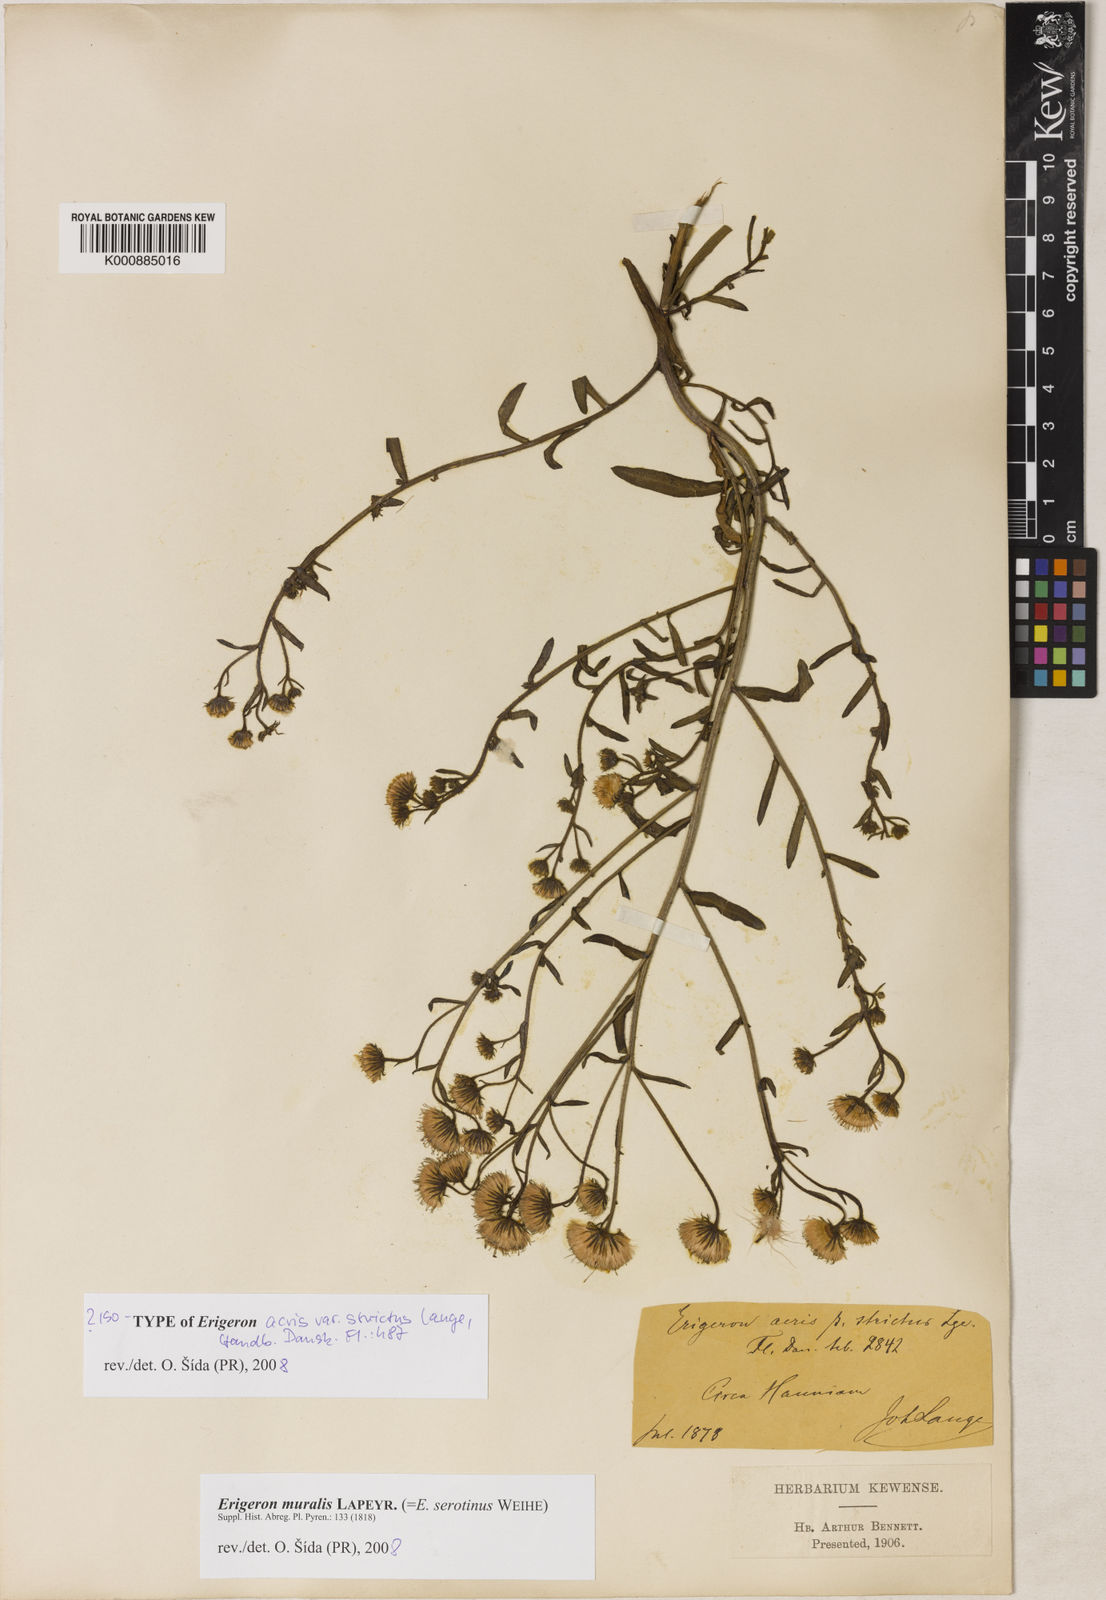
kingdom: Plantae
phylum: Tracheophyta
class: Magnoliopsida
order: Asterales
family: Asteraceae
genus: Erigeron
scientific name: Erigeron muralis
